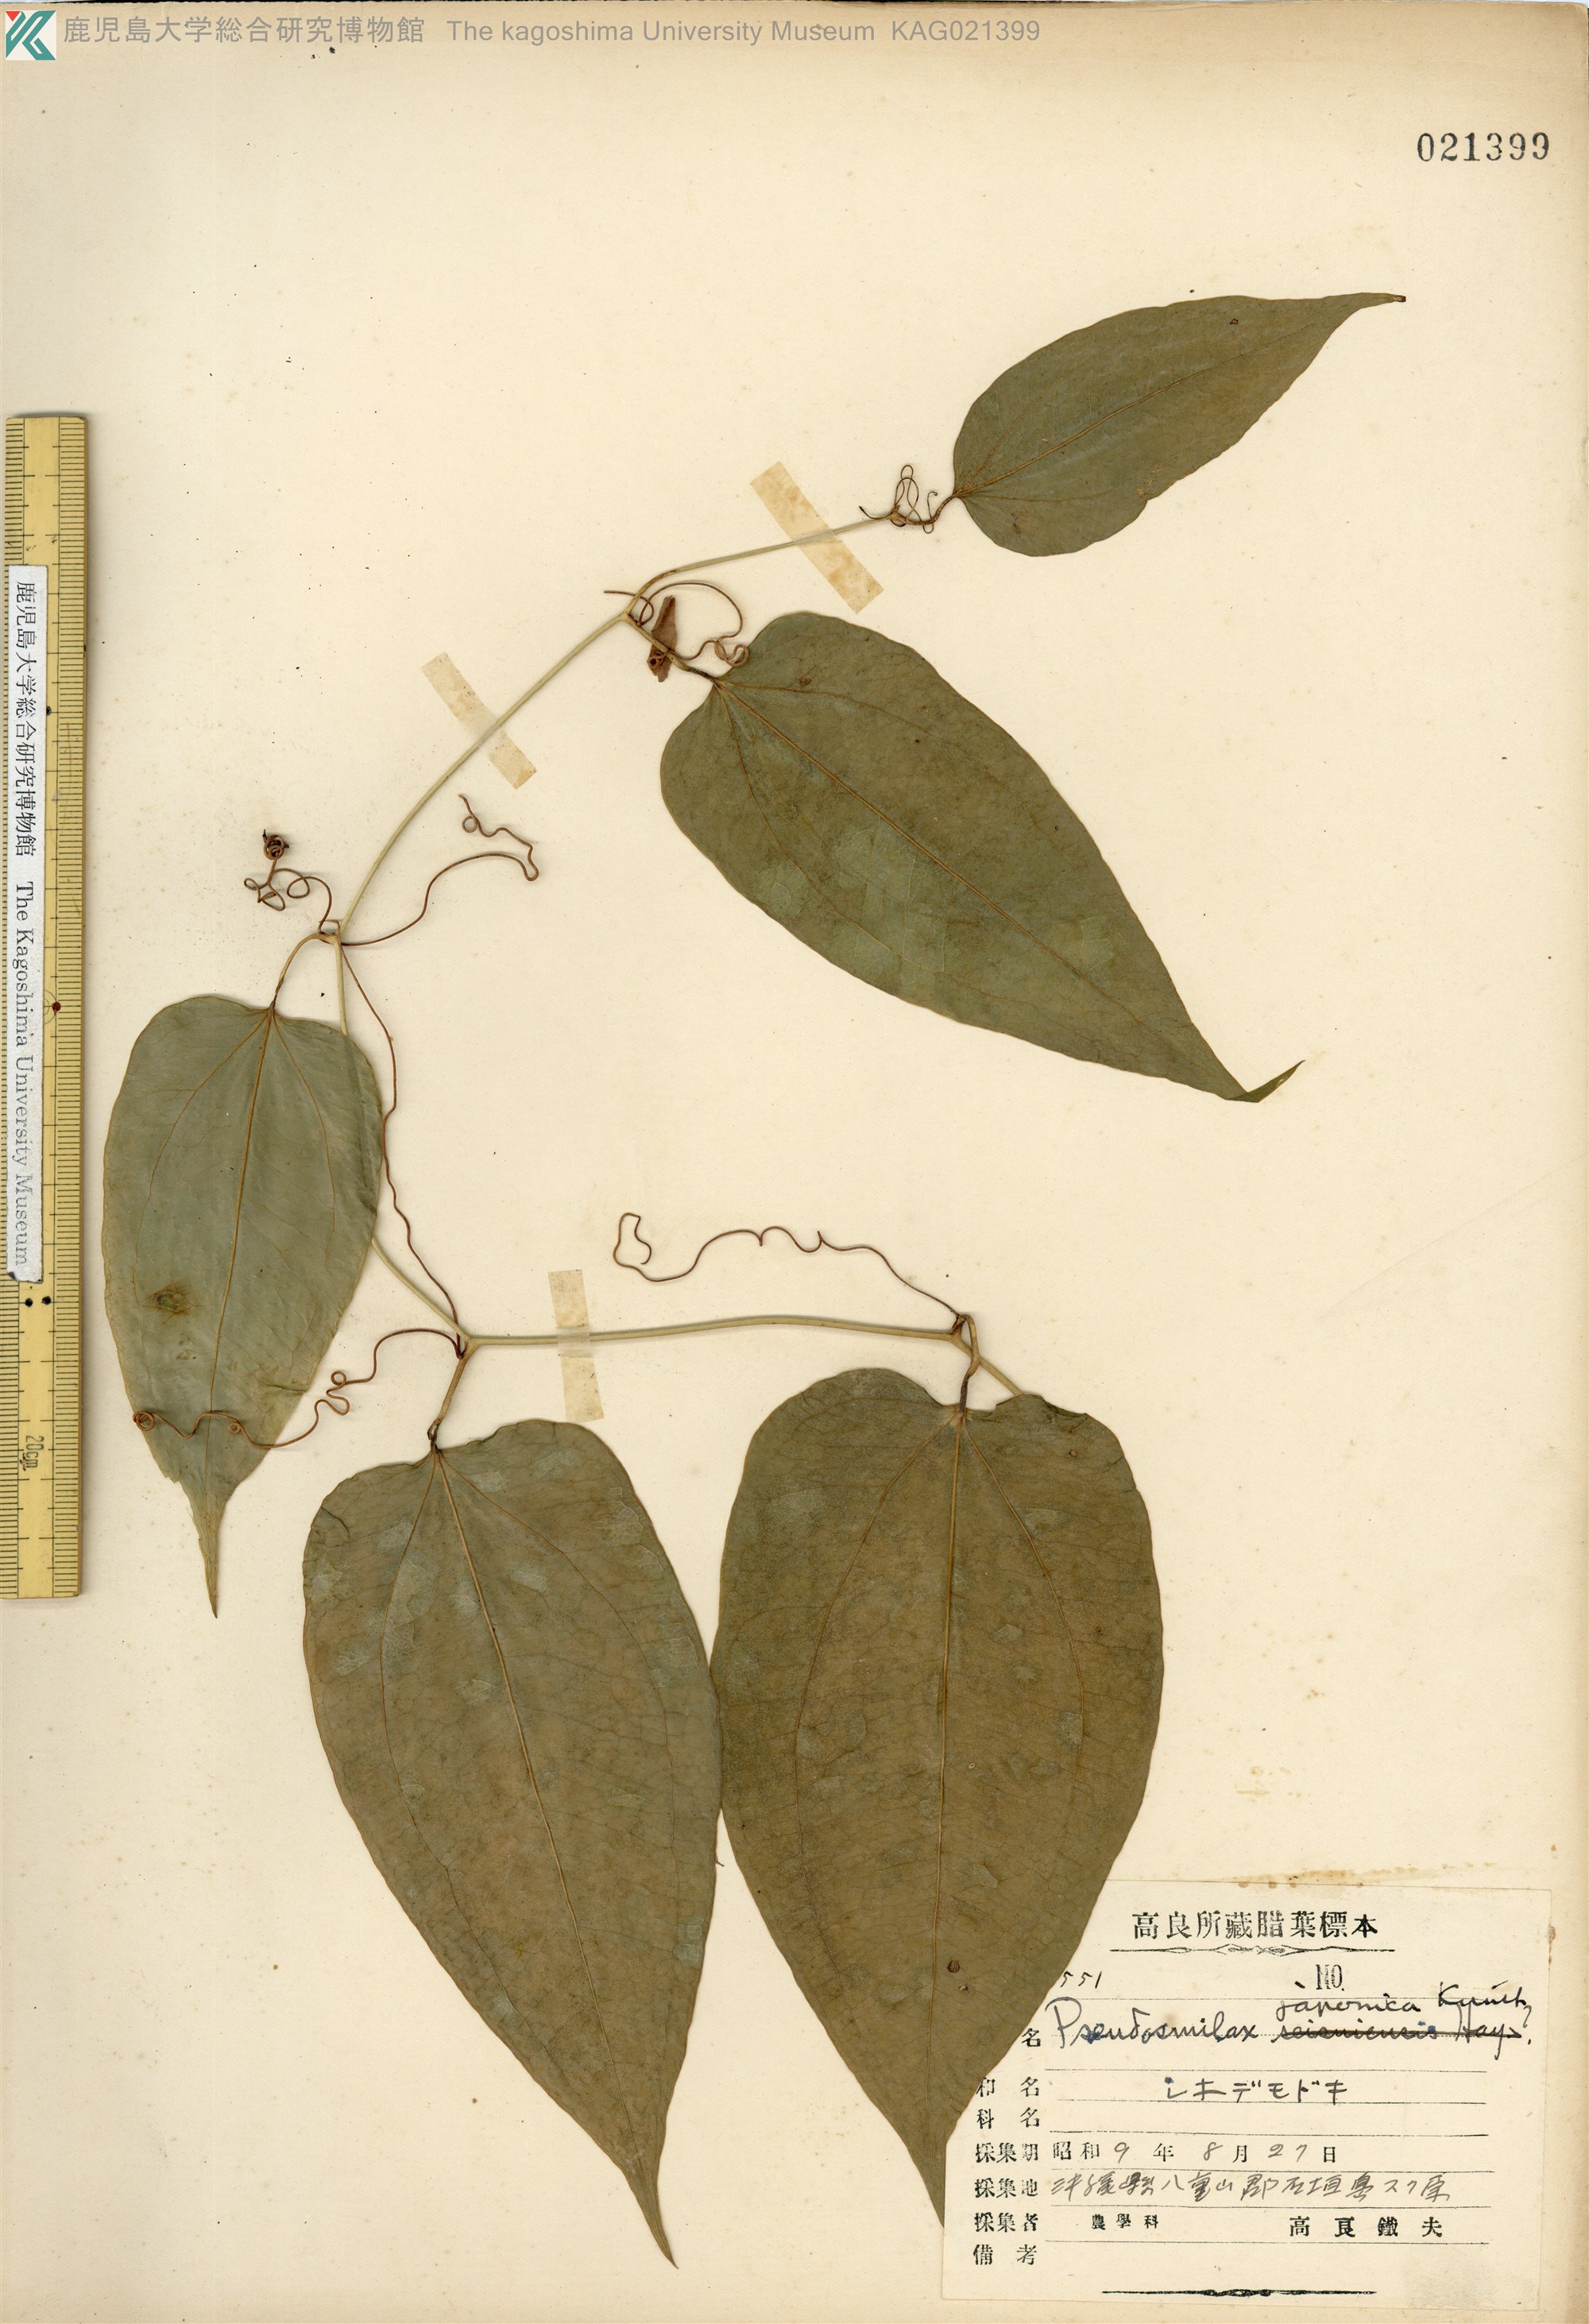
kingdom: Plantae
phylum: Tracheophyta
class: Liliopsida
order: Liliales
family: Smilacaceae
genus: Smilax
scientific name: Smilax insularis
